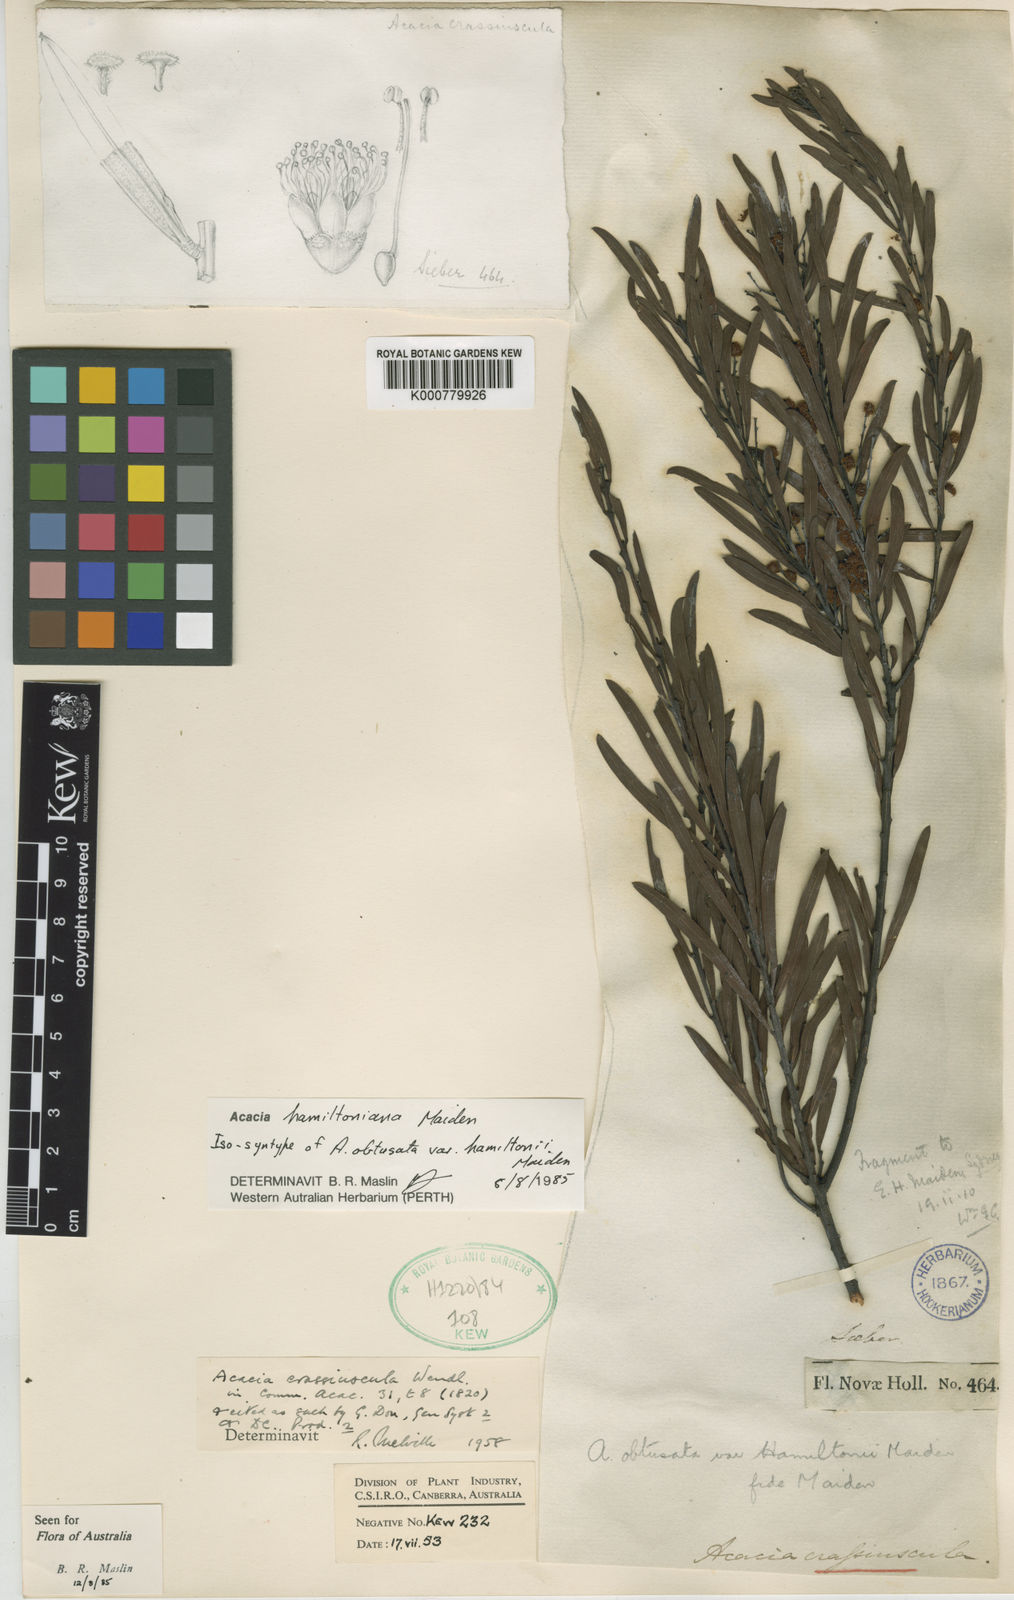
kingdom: Plantae
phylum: Tracheophyta
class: Magnoliopsida
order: Fabales
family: Fabaceae
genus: Acacia
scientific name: Acacia hamiltoniana
